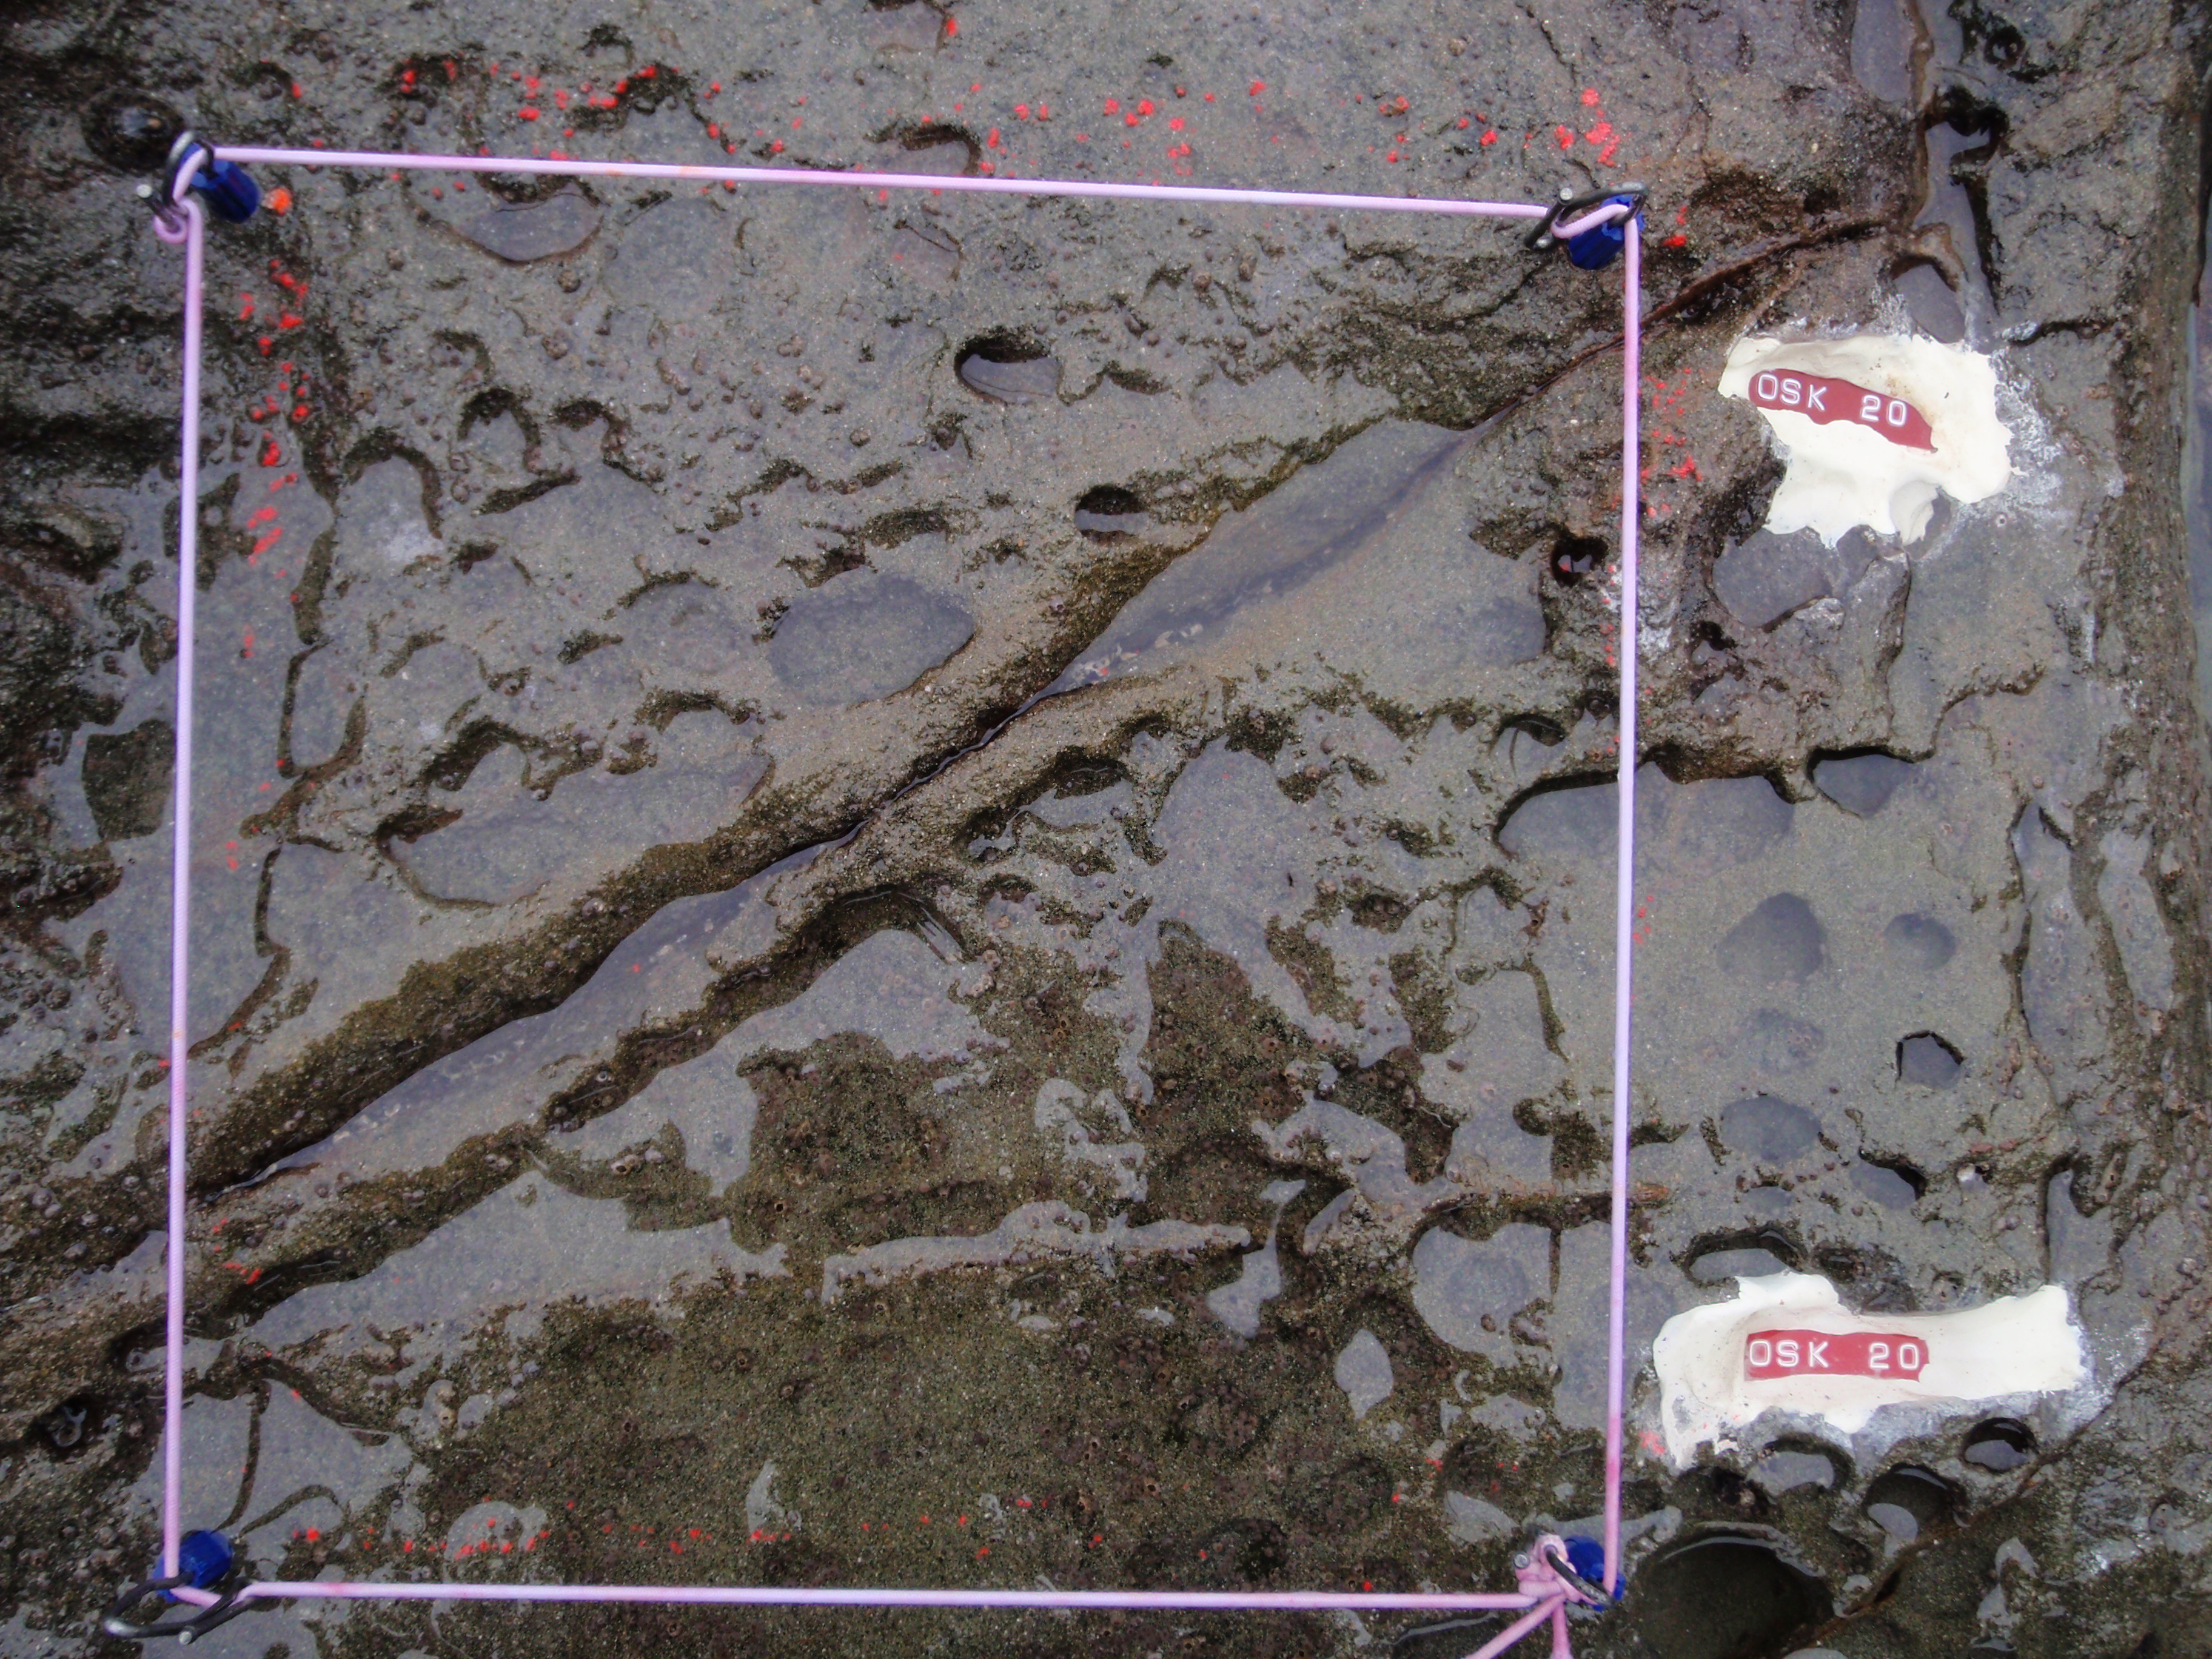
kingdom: Animalia
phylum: Arthropoda
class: Maxillopoda
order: Sessilia
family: Chthamalidae
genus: Chthamalus
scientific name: Chthamalus challengeri
